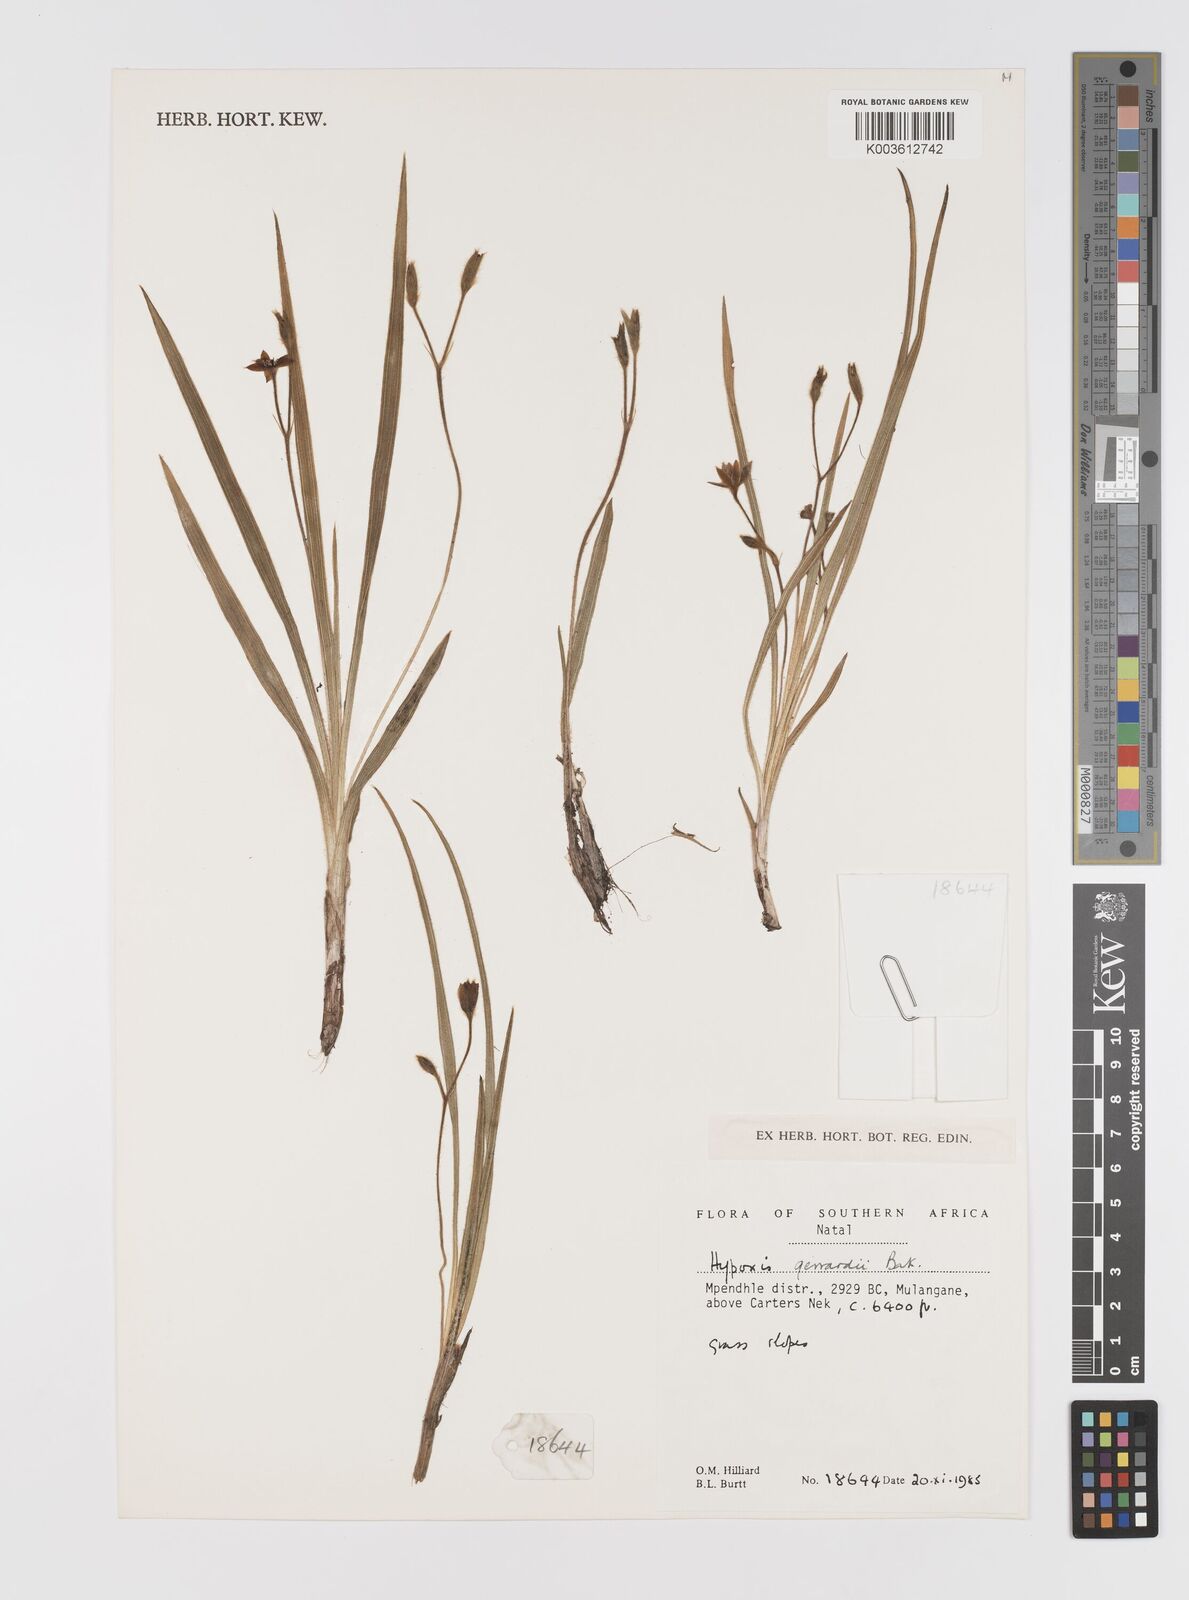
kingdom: Plantae
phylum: Tracheophyta
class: Liliopsida
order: Asparagales
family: Hypoxidaceae
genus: Hypoxis
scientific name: Hypoxis gerrardii
